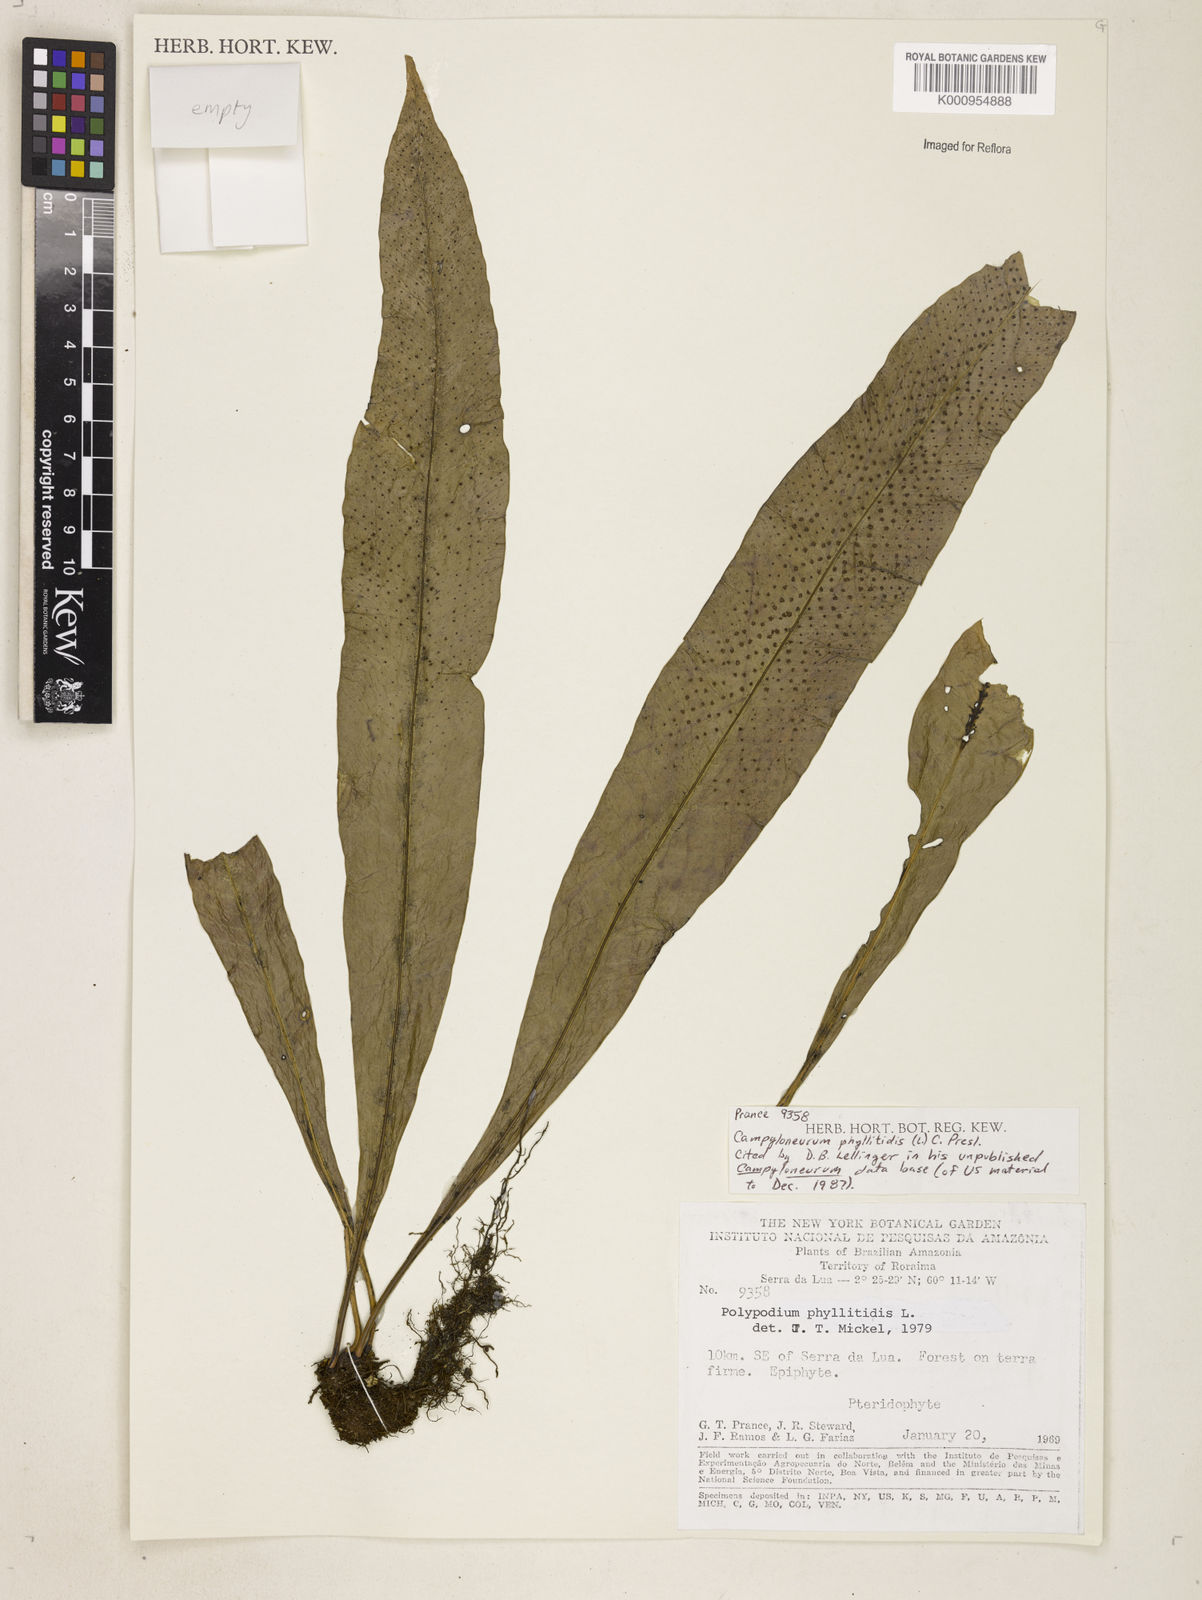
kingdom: Plantae
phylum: Tracheophyta
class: Polypodiopsida
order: Polypodiales
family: Polypodiaceae
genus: Campyloneurum
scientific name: Campyloneurum phyllitidis
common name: Cow-tongue fern
